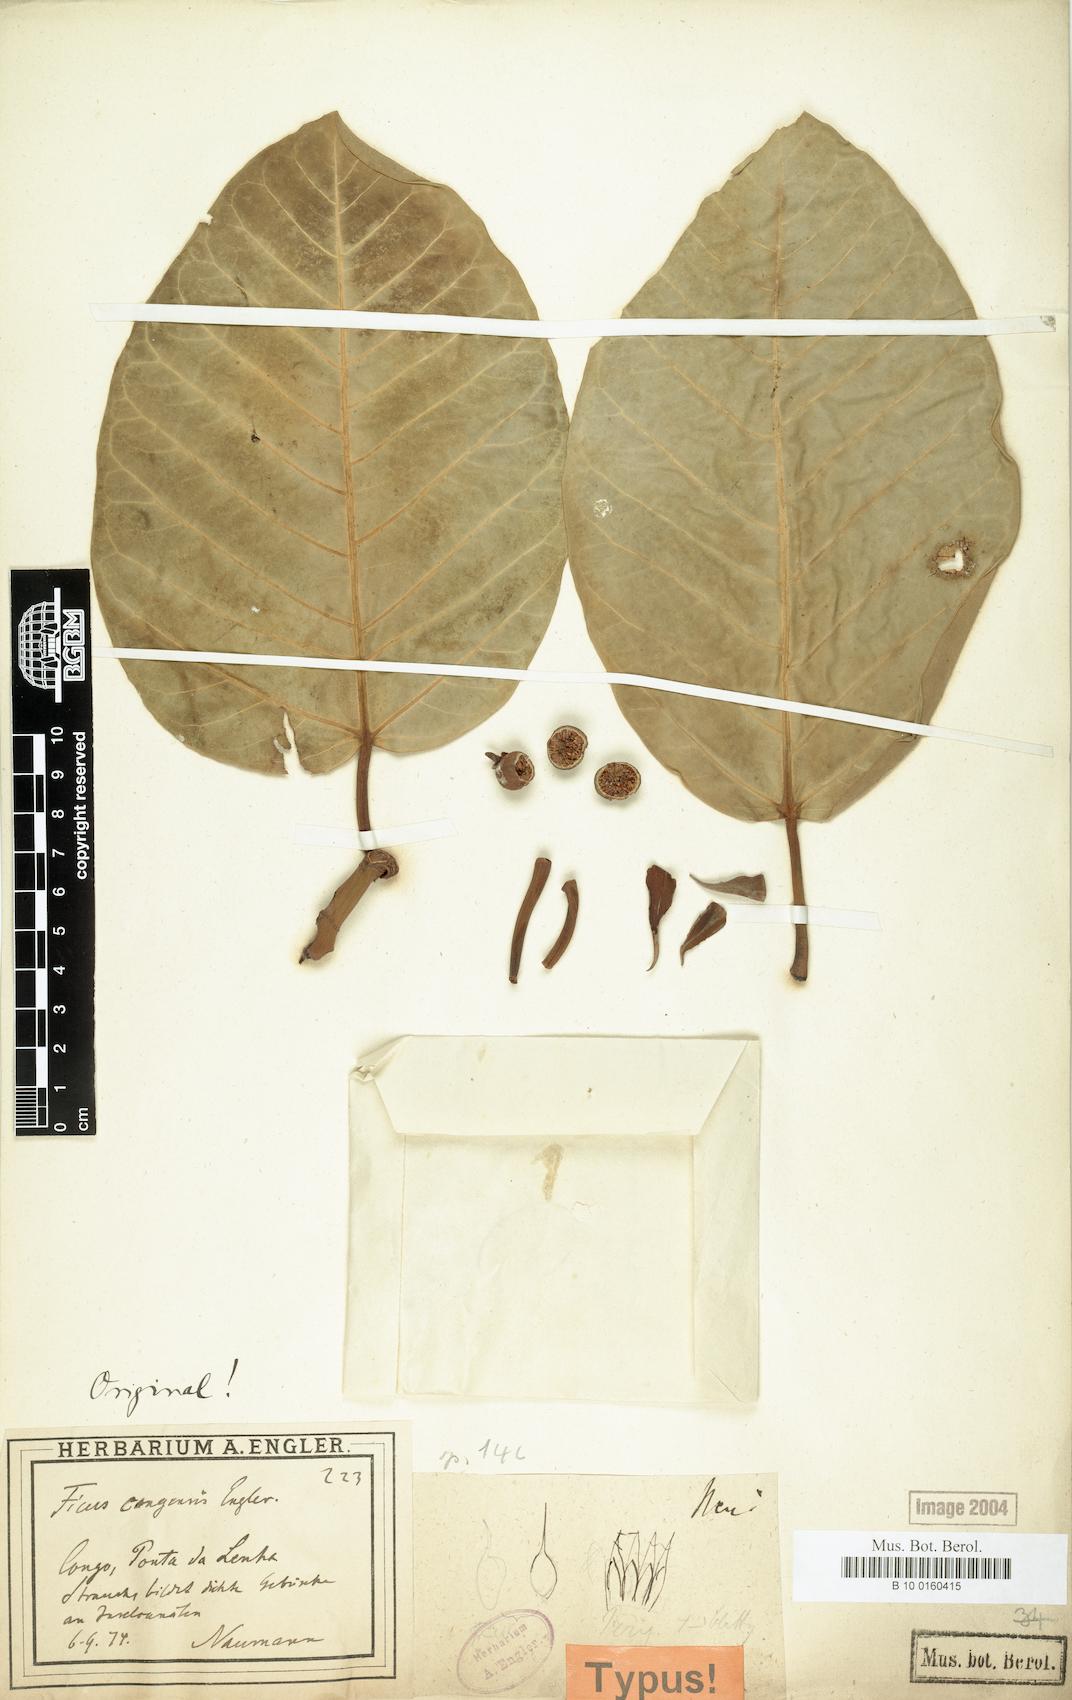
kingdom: Plantae
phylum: Tracheophyta
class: Magnoliopsida
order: Rosales
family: Moraceae
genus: Ficus
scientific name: Ficus trichopoda
